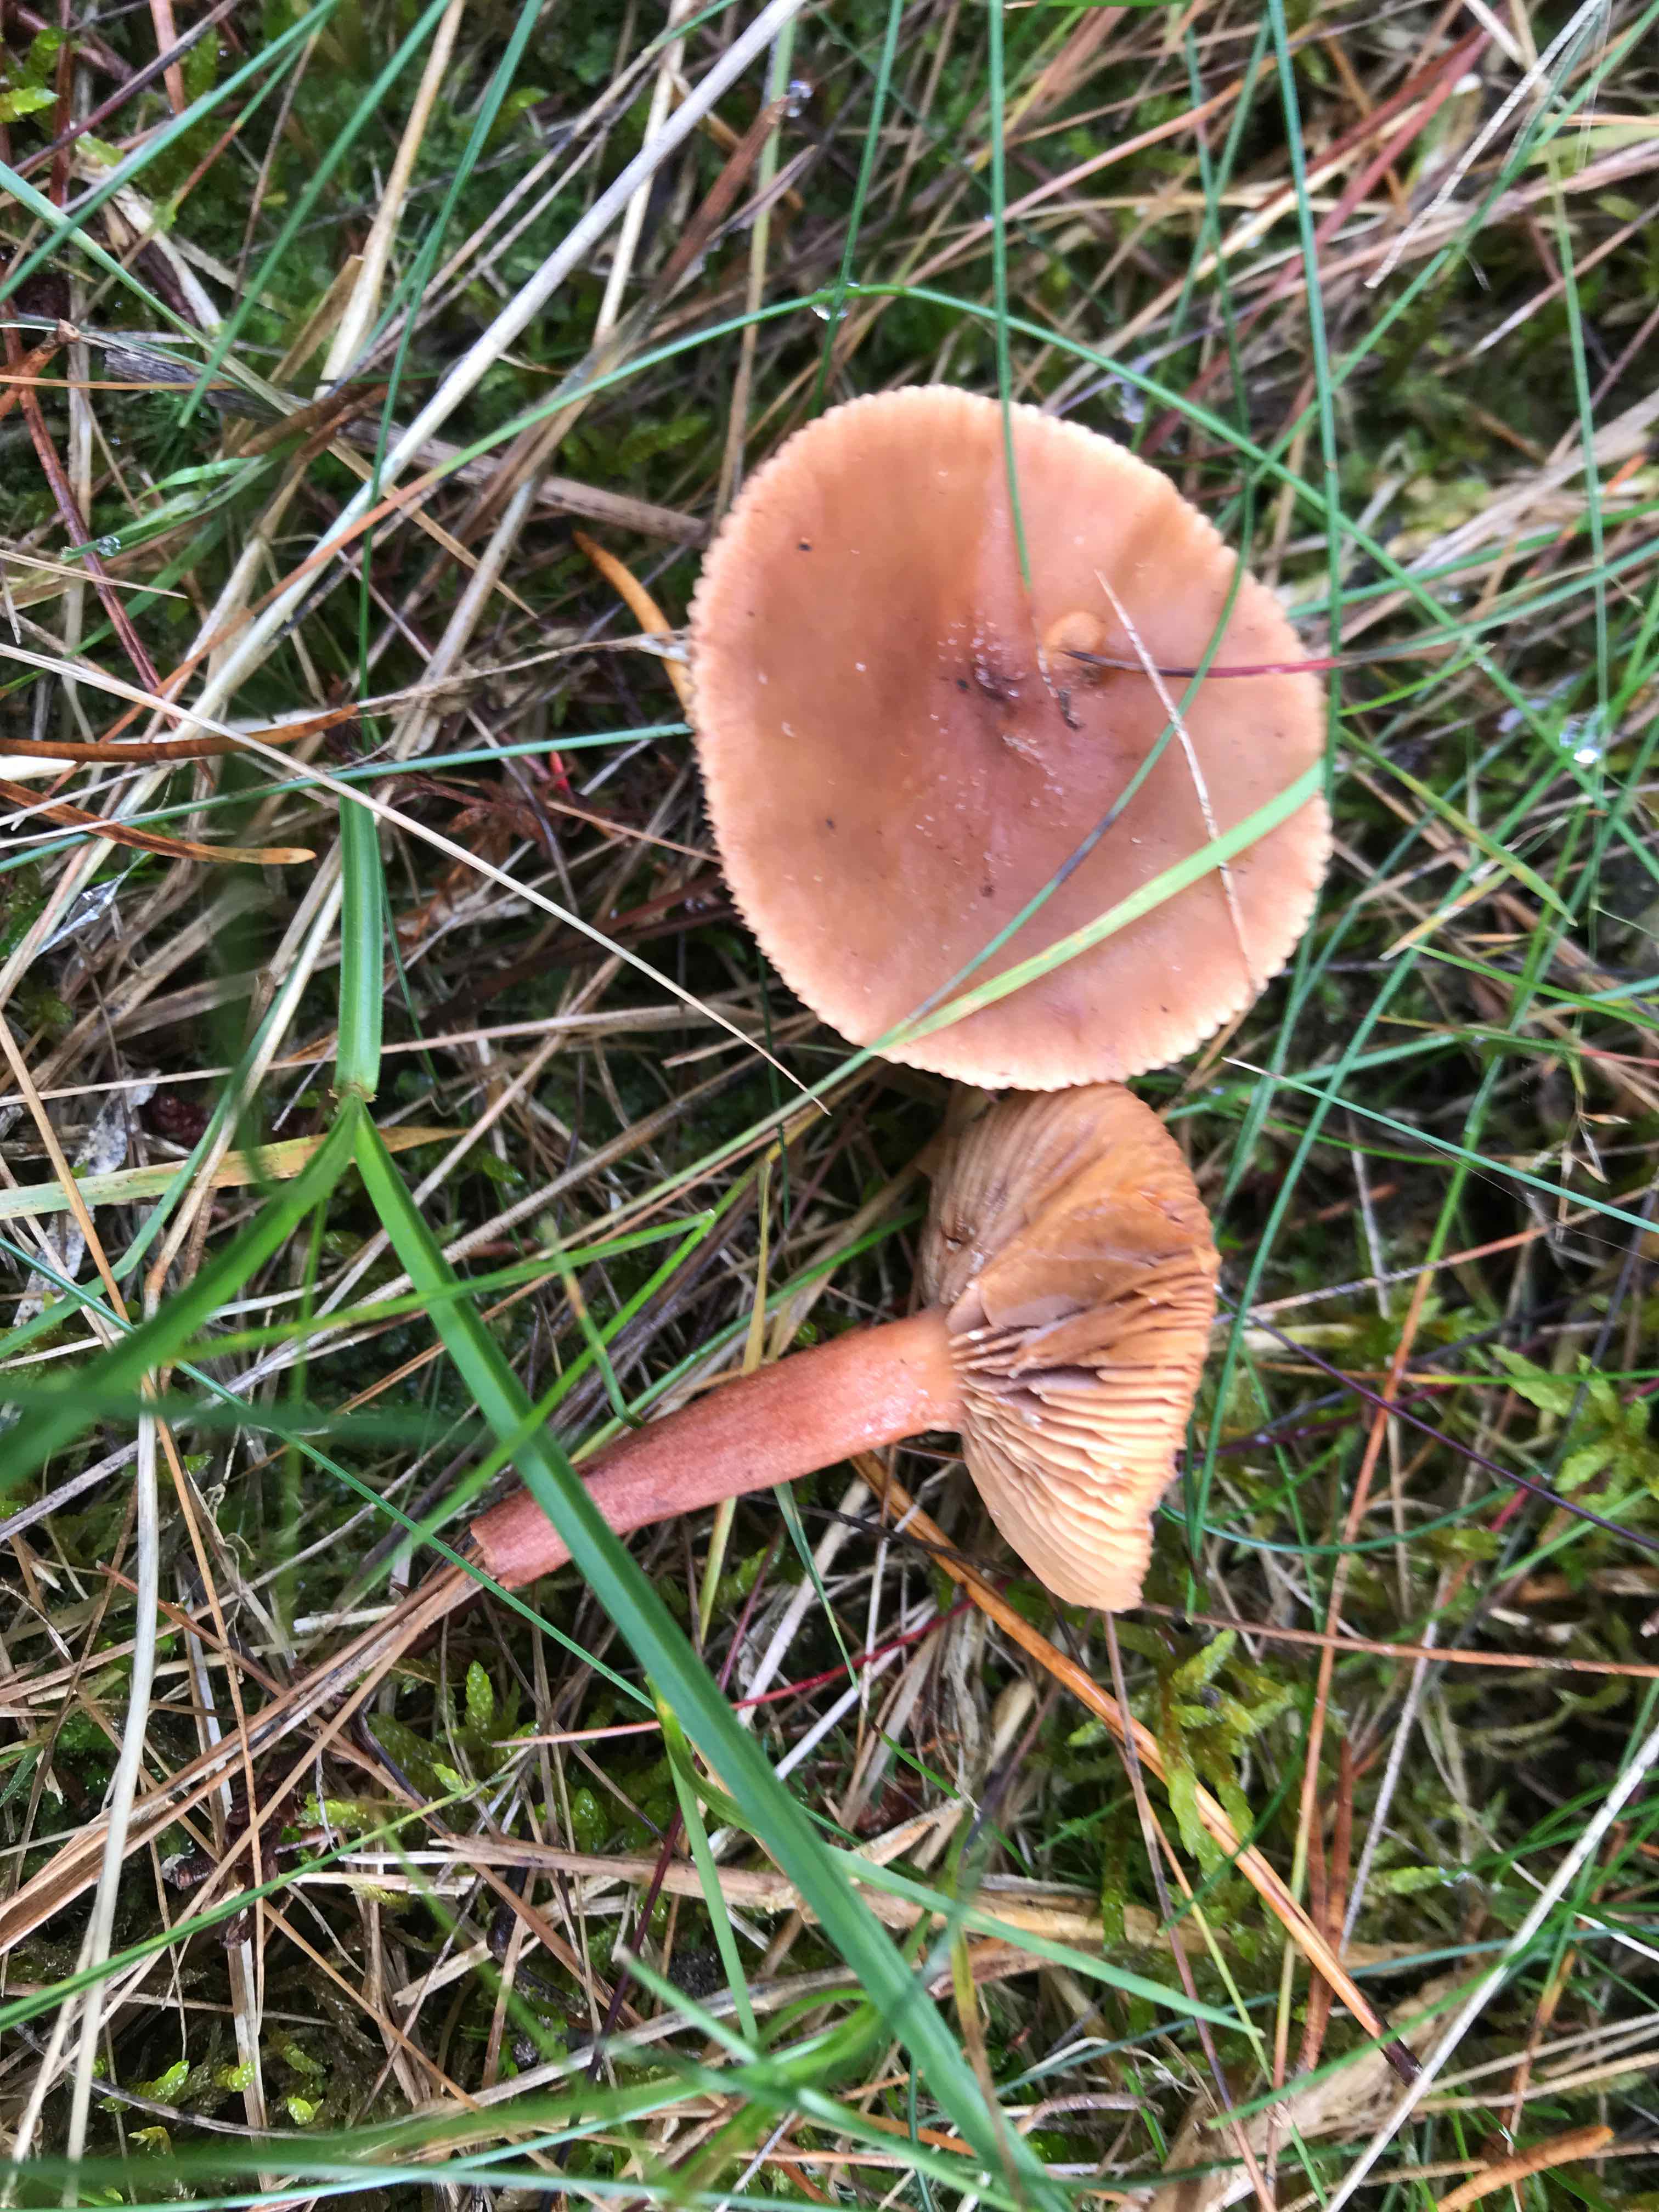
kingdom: Fungi
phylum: Basidiomycota
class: Agaricomycetes
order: Russulales
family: Russulaceae
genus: Lactarius
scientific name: Lactarius hepaticus
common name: leverbrun mælkehat
